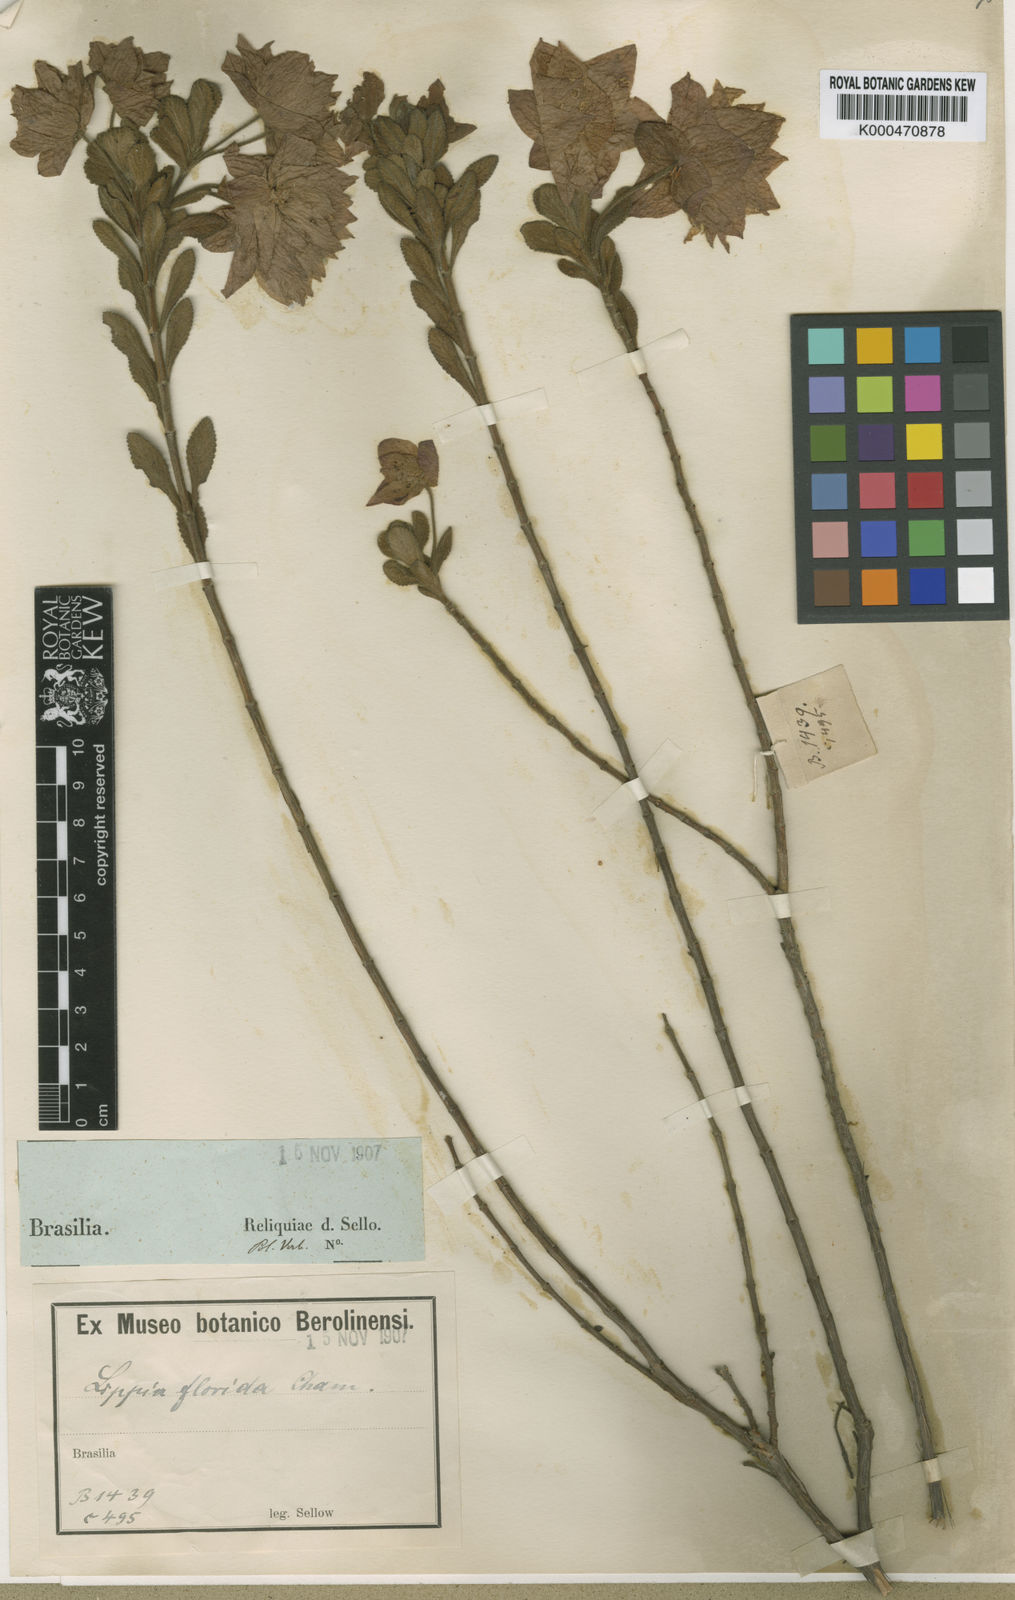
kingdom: Plantae
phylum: Tracheophyta
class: Magnoliopsida
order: Lamiales
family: Verbenaceae
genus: Lippia
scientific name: Lippia florida
